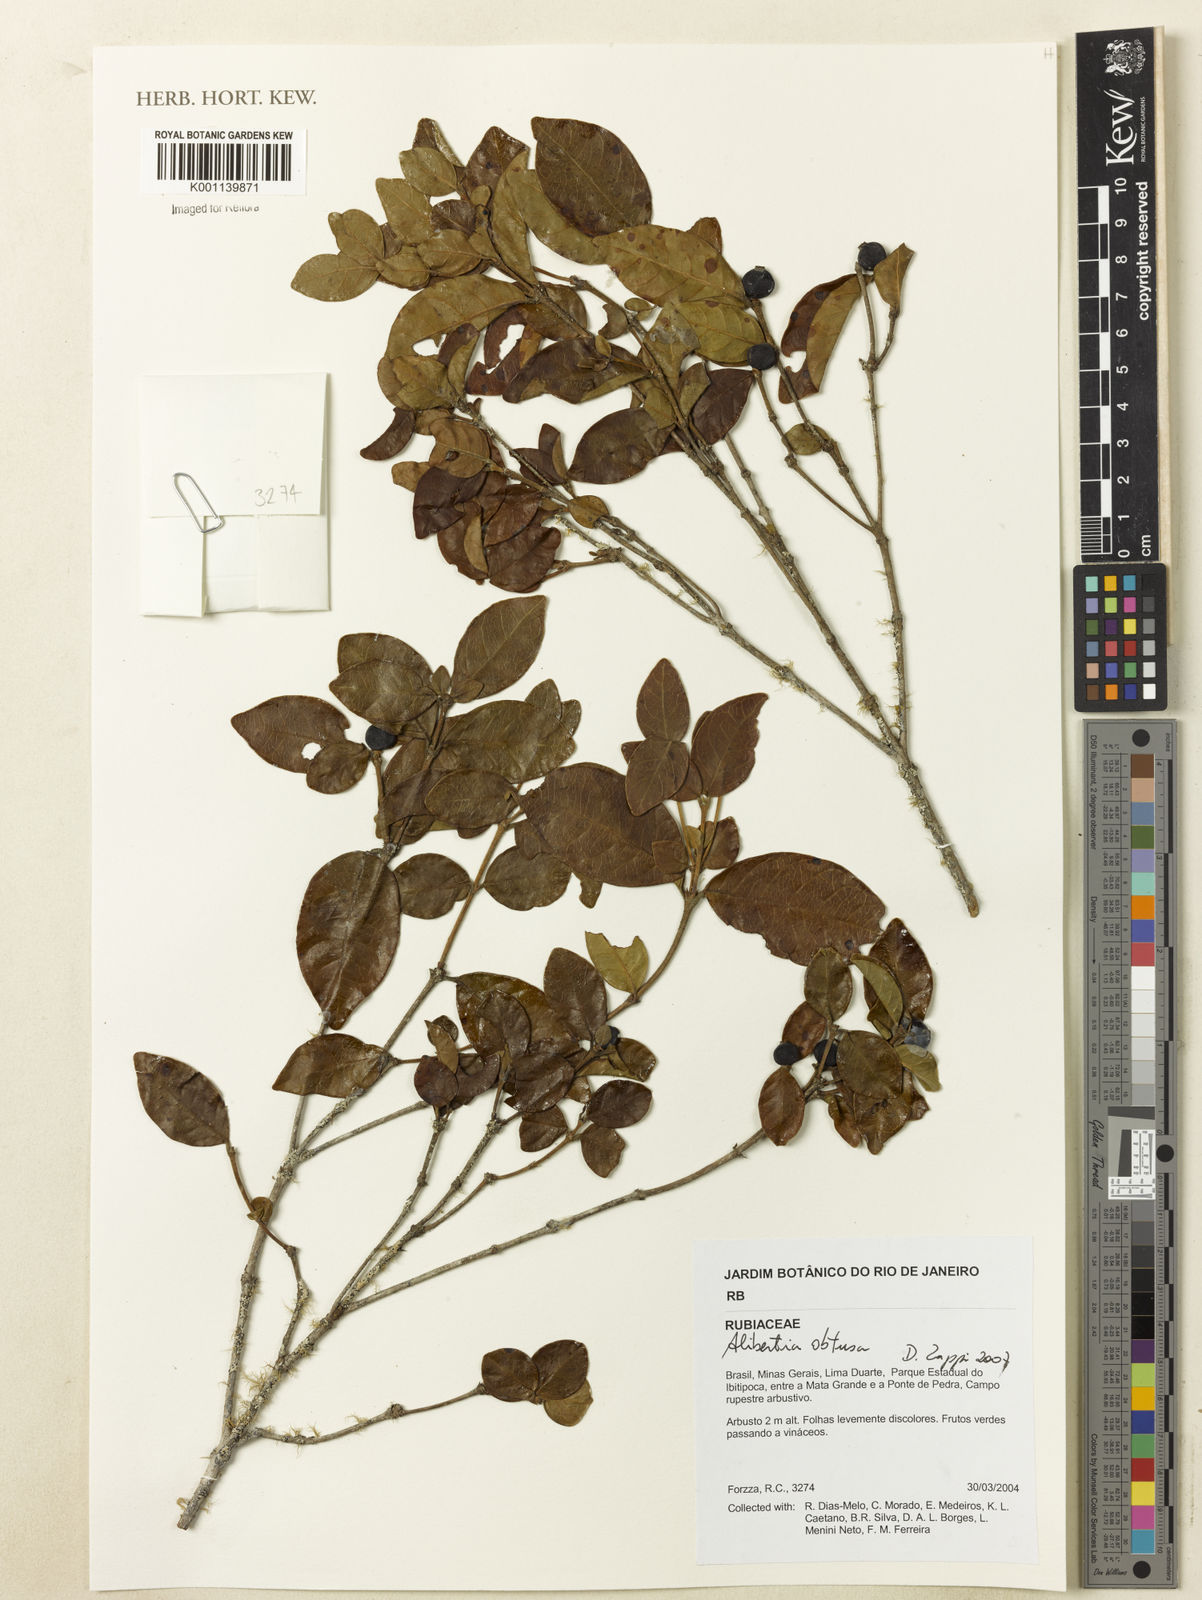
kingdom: Plantae
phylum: Tracheophyta
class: Magnoliopsida
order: Gentianales
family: Rubiaceae
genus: Cordiera
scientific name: Cordiera obtusa
